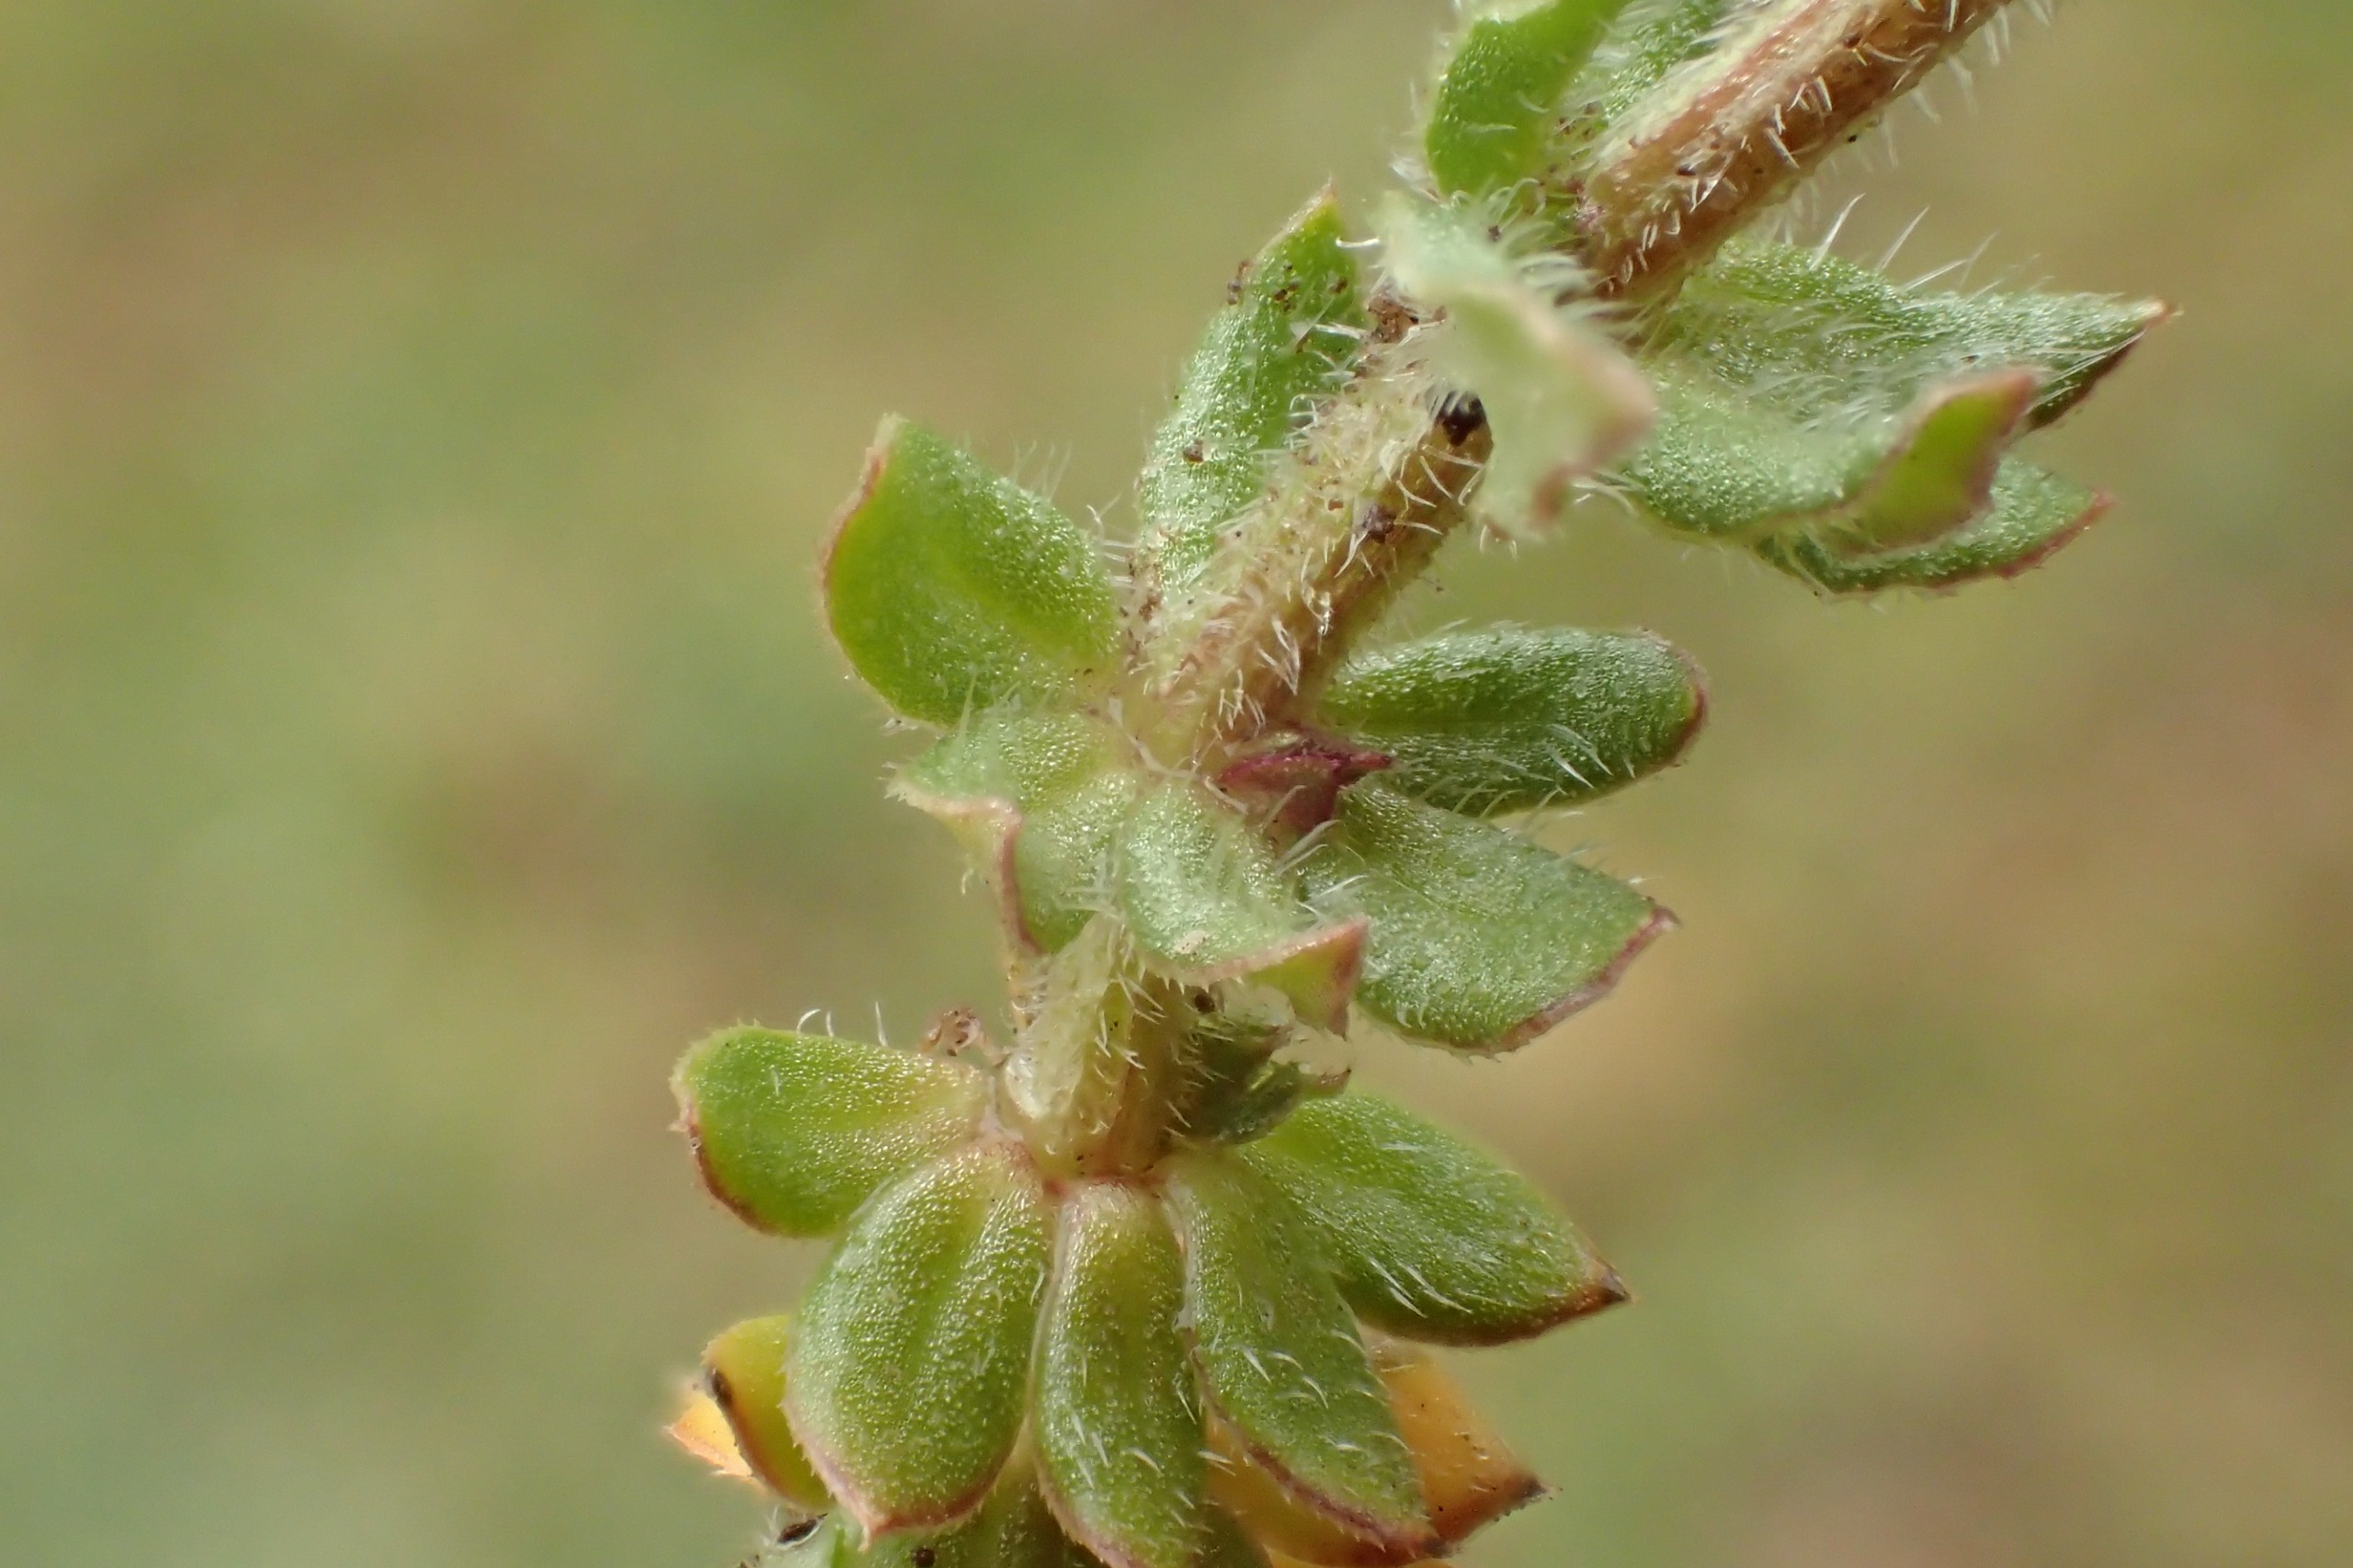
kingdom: Plantae
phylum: Tracheophyta
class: Magnoliopsida
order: Gentianales
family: Rubiaceae
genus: Sherardia
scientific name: Sherardia arvensis
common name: Blåstjerne
